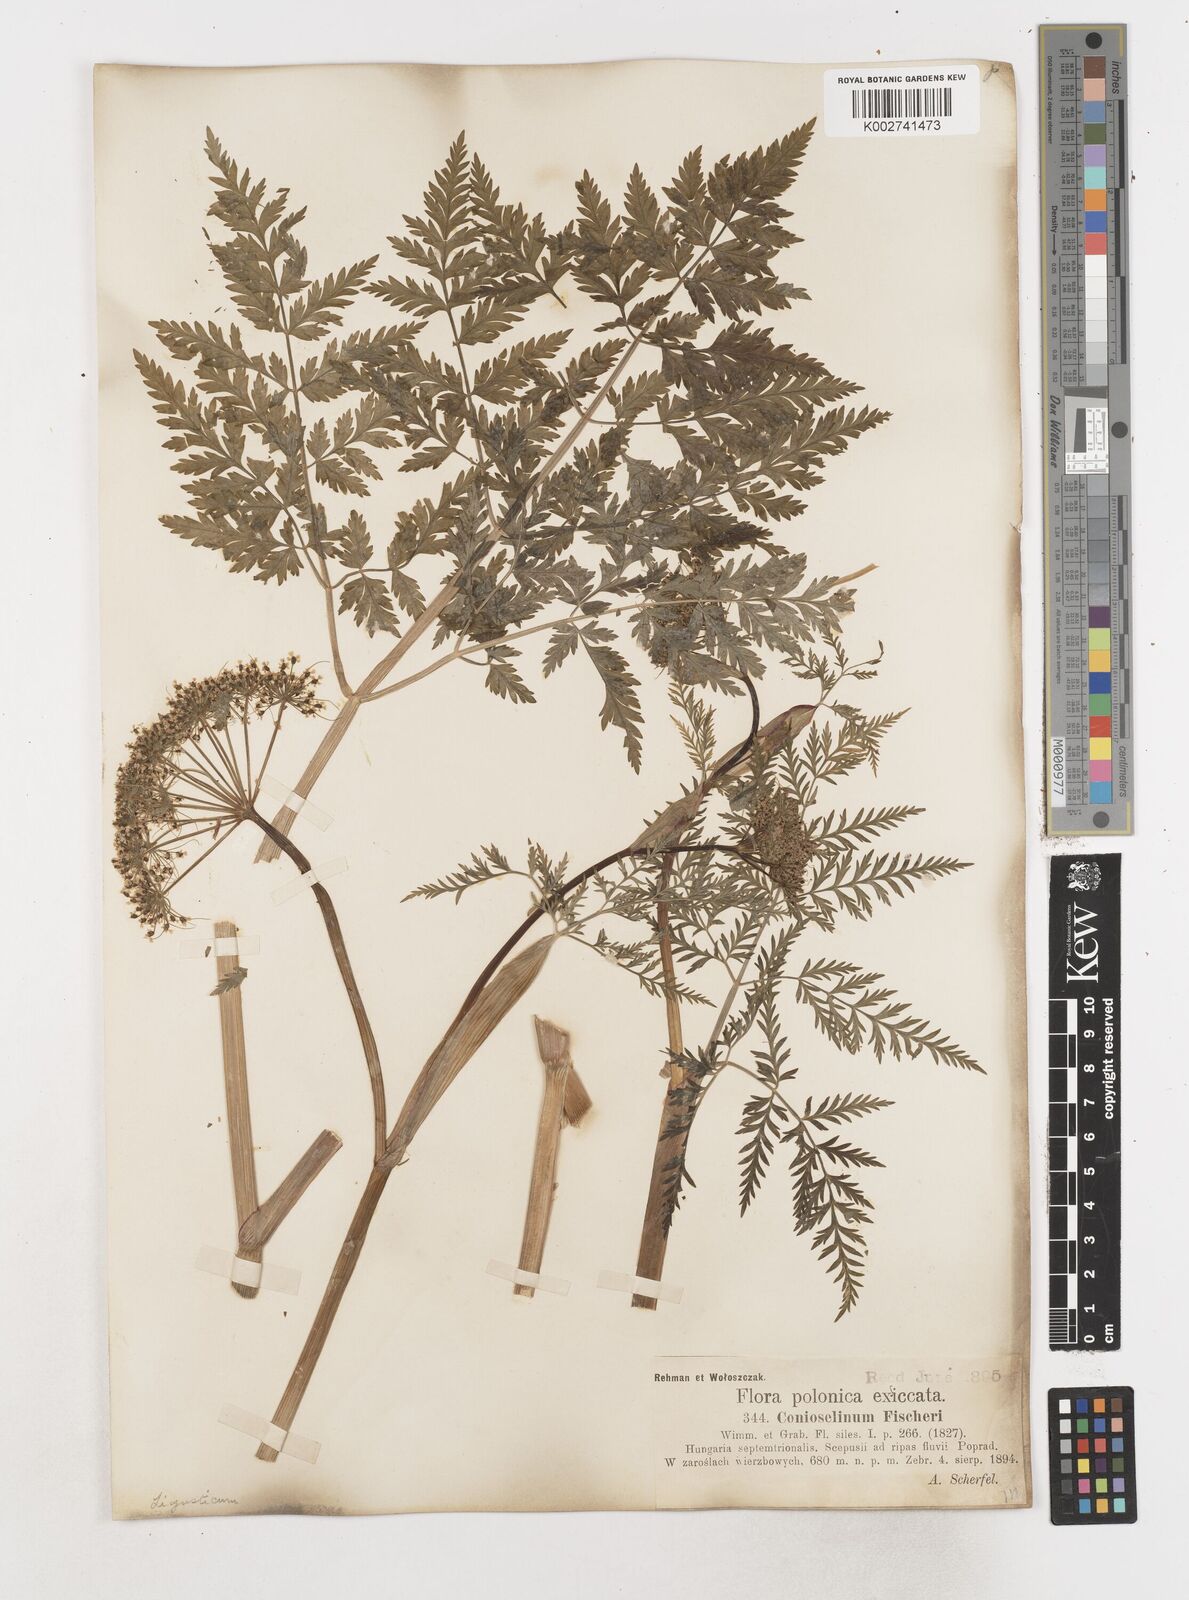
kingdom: Plantae
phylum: Tracheophyta
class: Magnoliopsida
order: Apiales
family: Apiaceae
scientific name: Apiaceae
